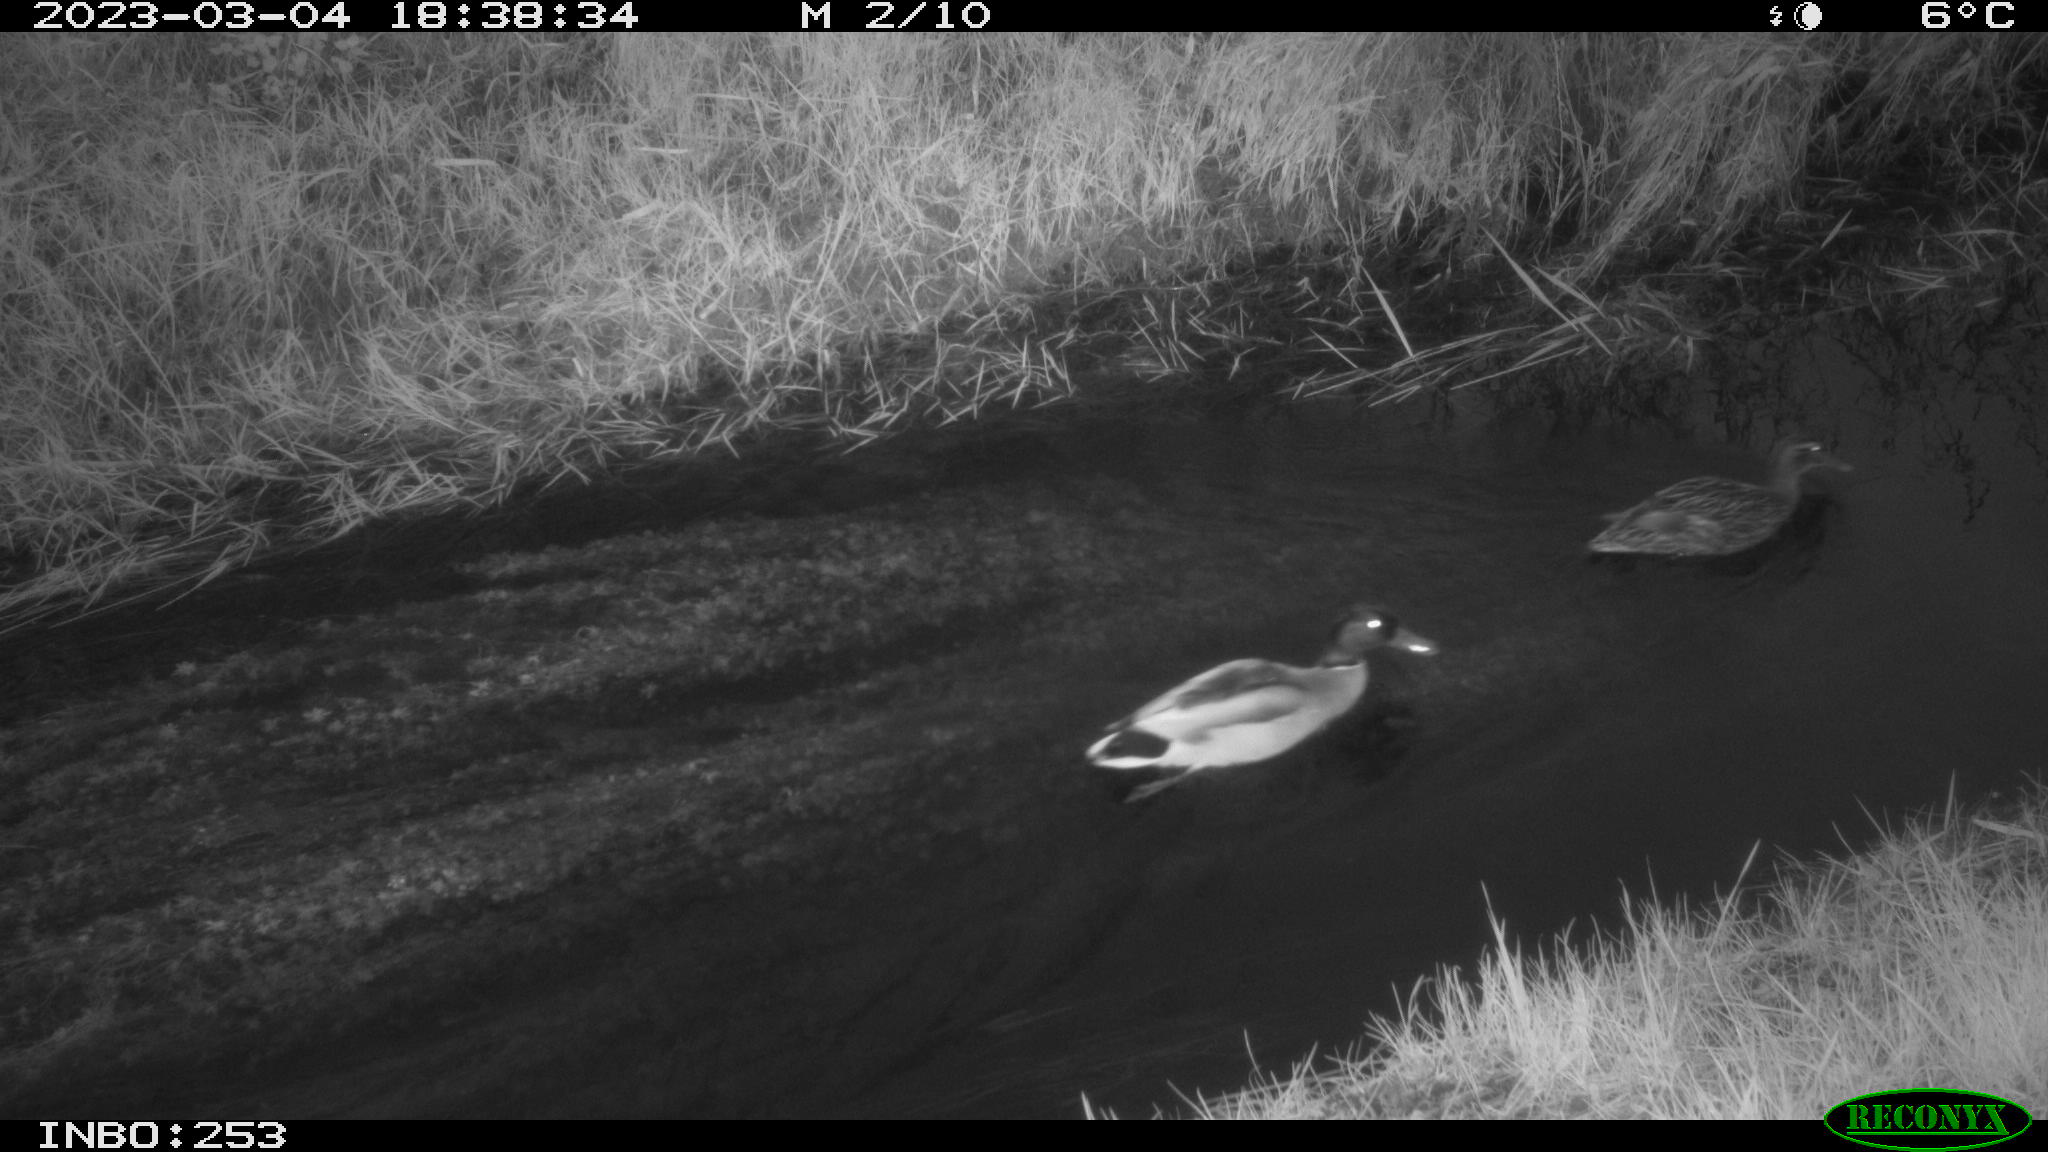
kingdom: Animalia
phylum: Chordata
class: Aves
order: Anseriformes
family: Anatidae
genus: Anas
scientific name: Anas
